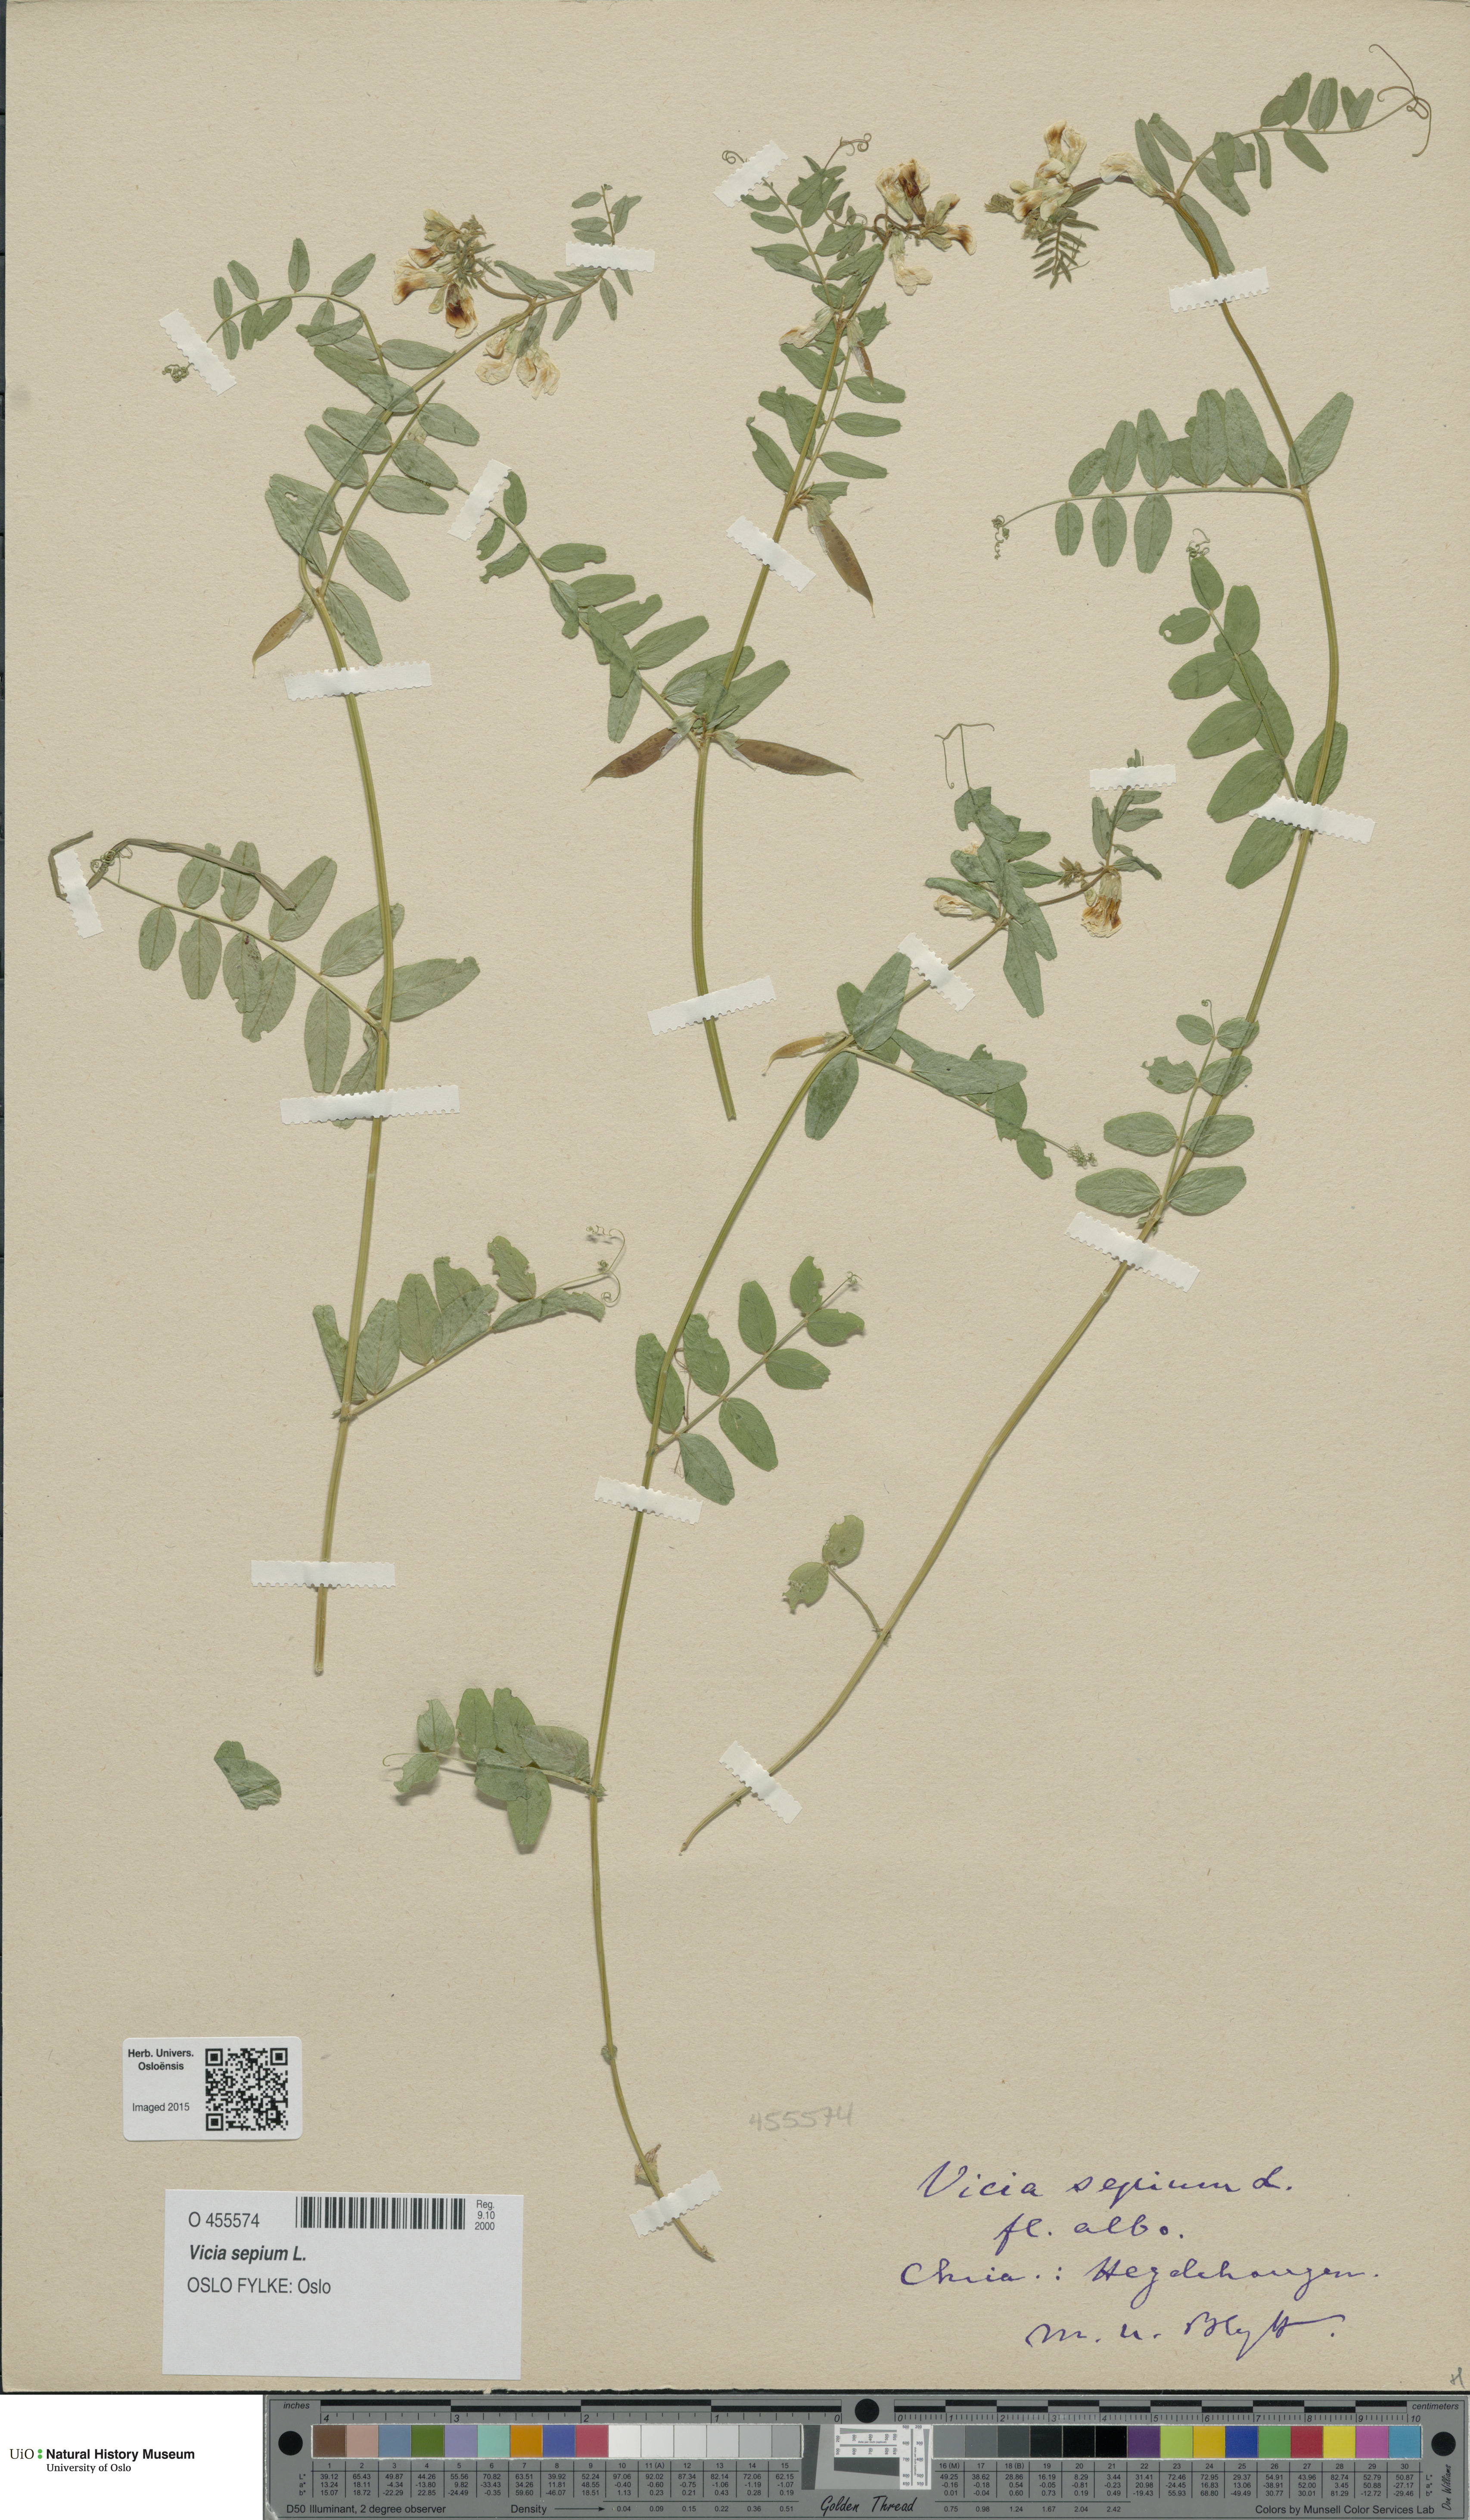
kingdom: Plantae
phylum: Tracheophyta
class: Magnoliopsida
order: Fabales
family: Fabaceae
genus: Vicia
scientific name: Vicia sepium
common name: Bush vetch
